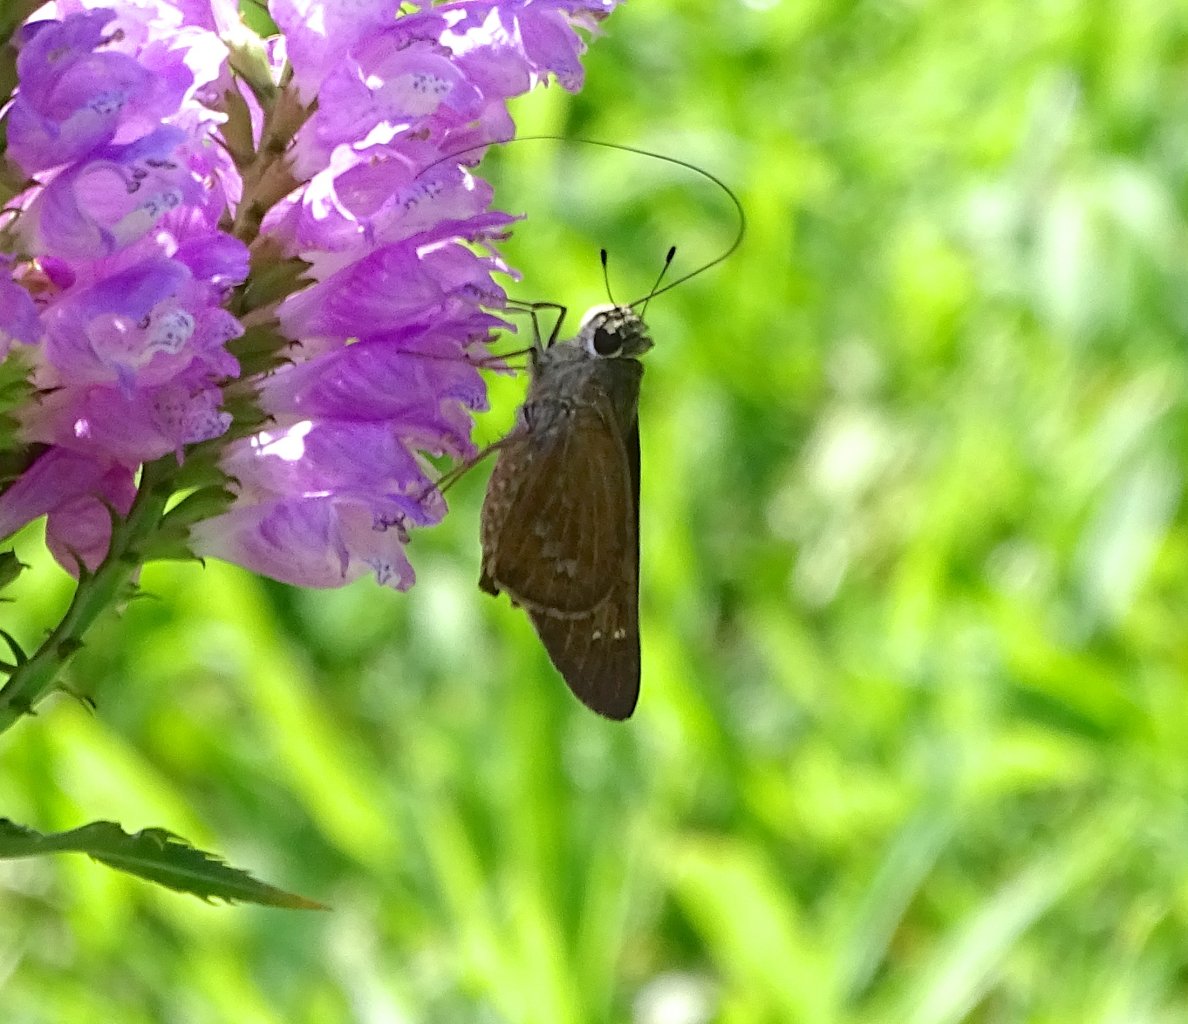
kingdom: Animalia
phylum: Arthropoda
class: Insecta
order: Lepidoptera
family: Hesperiidae
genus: Calpodes
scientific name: Calpodes ethlius
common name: Brazilian Skipper
